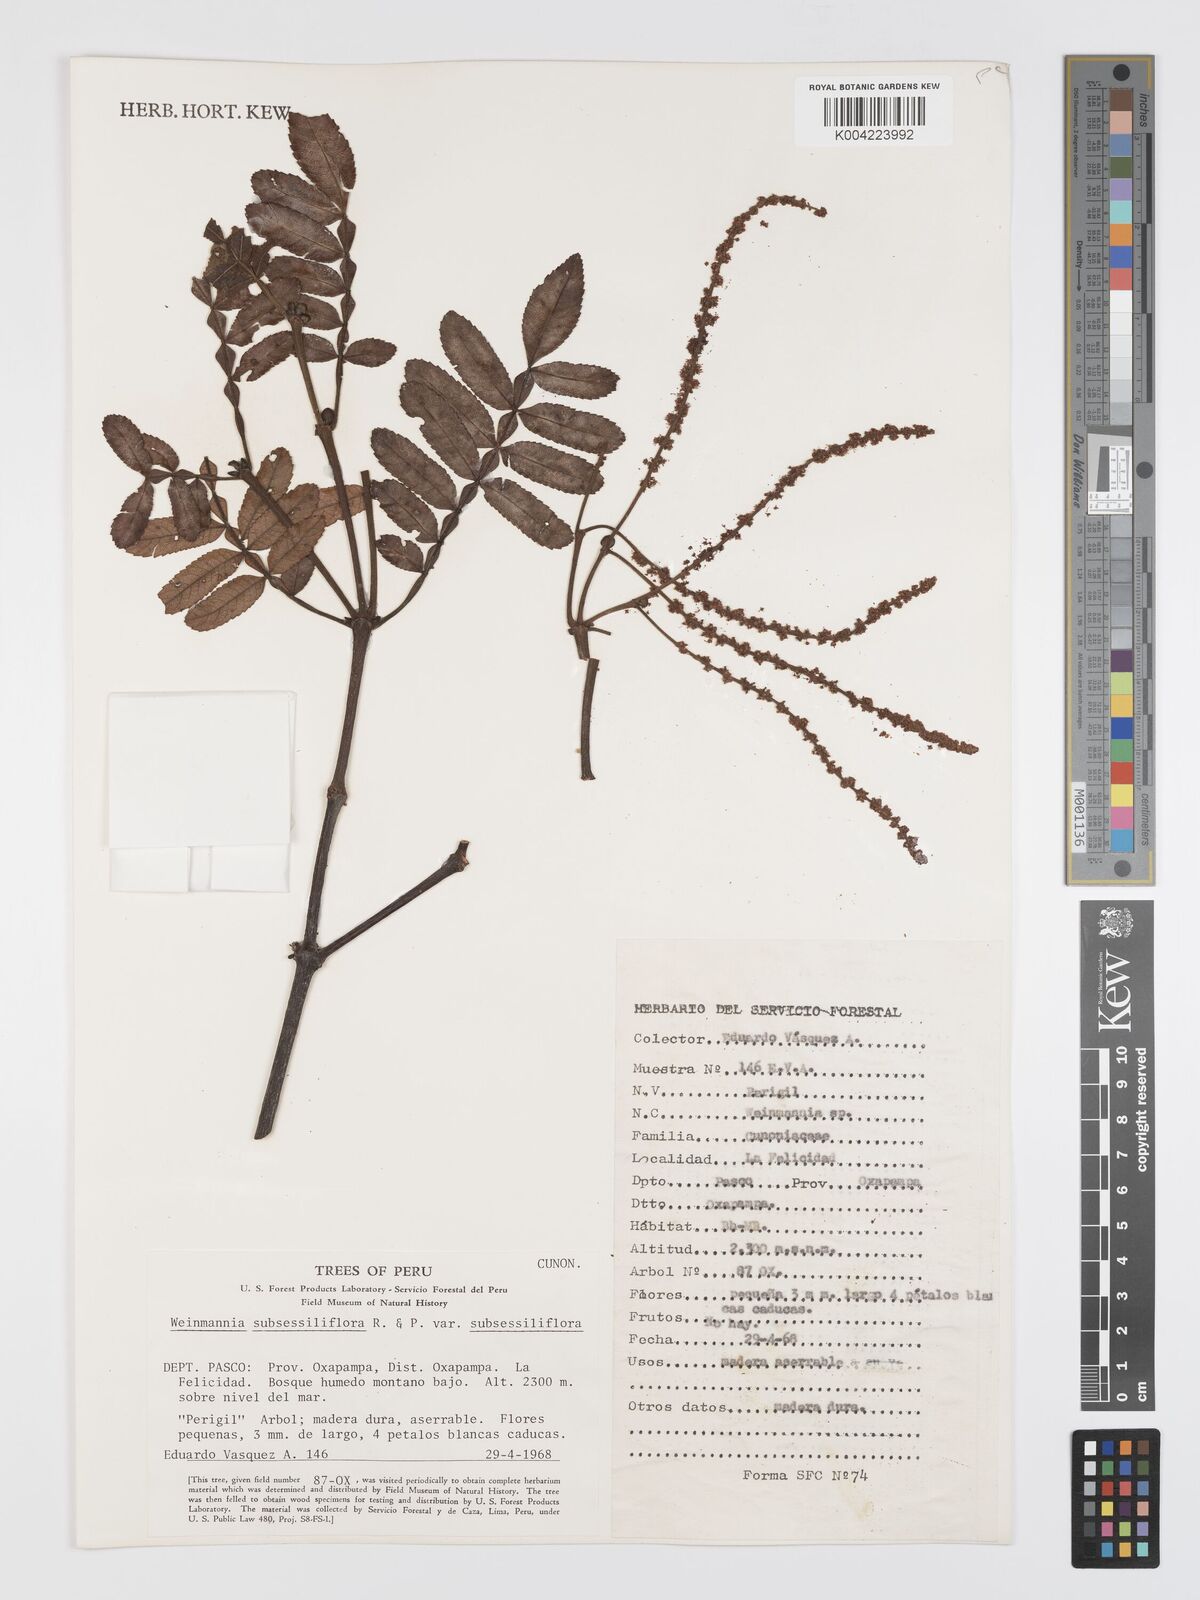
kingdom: Plantae
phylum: Tracheophyta
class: Magnoliopsida
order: Oxalidales
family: Cunoniaceae
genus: Weinmannia
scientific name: Weinmannia subsessiliflora
